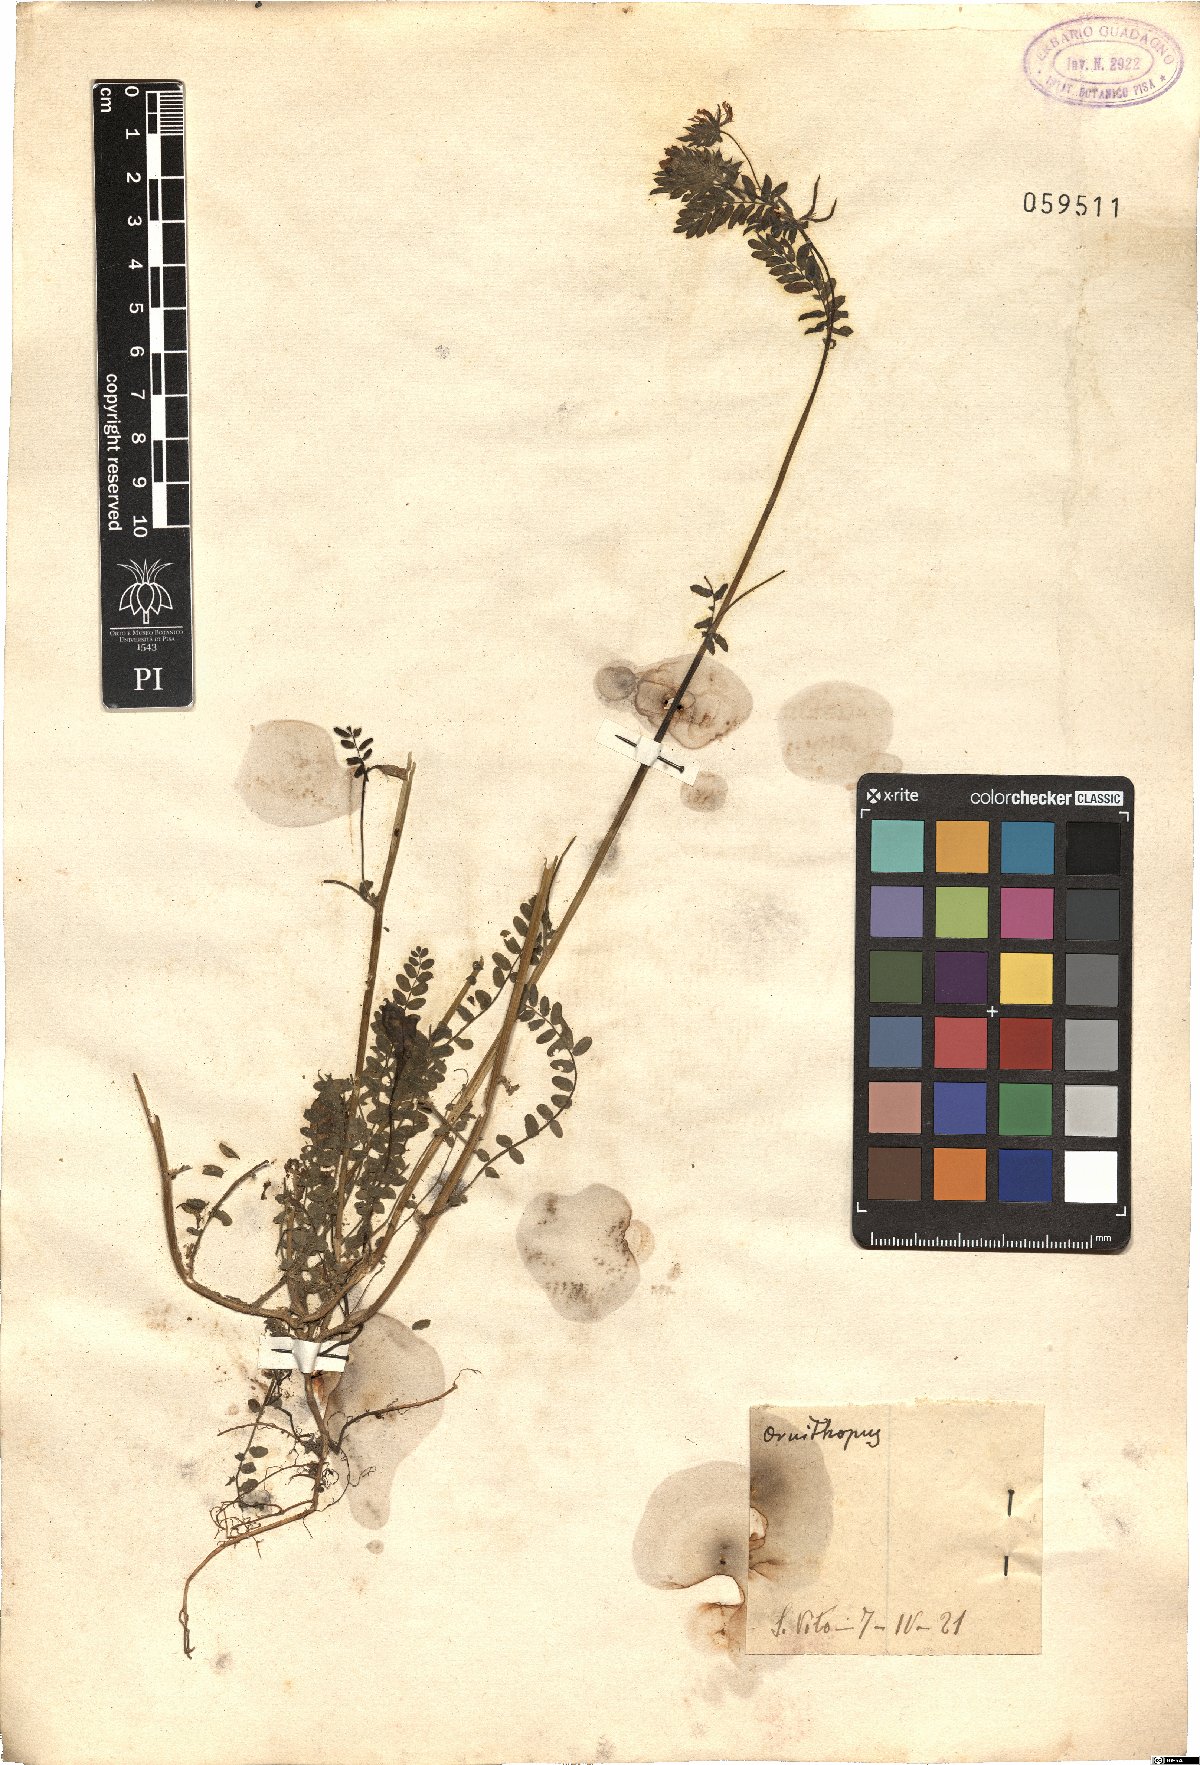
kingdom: Plantae
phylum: Tracheophyta
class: Magnoliopsida
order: Fabales
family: Fabaceae
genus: Ornithopus
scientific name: Ornithopus
